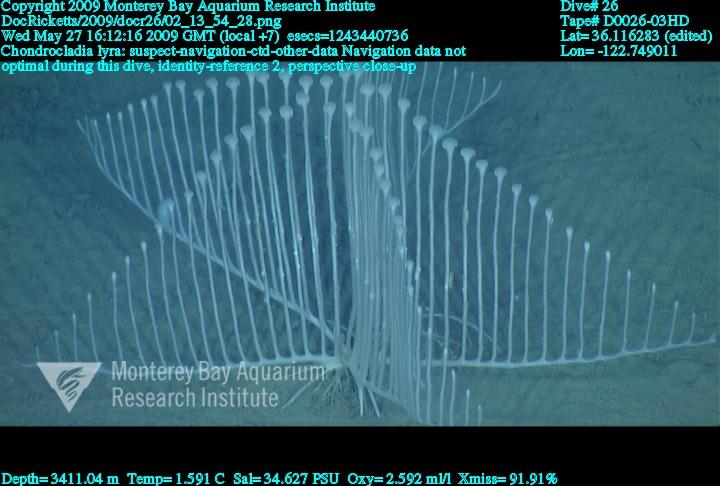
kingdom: Animalia
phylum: Porifera
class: Demospongiae
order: Poecilosclerida
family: Cladorhizidae
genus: Chondrocladia
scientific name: Chondrocladia lyra
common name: Harp sponge
